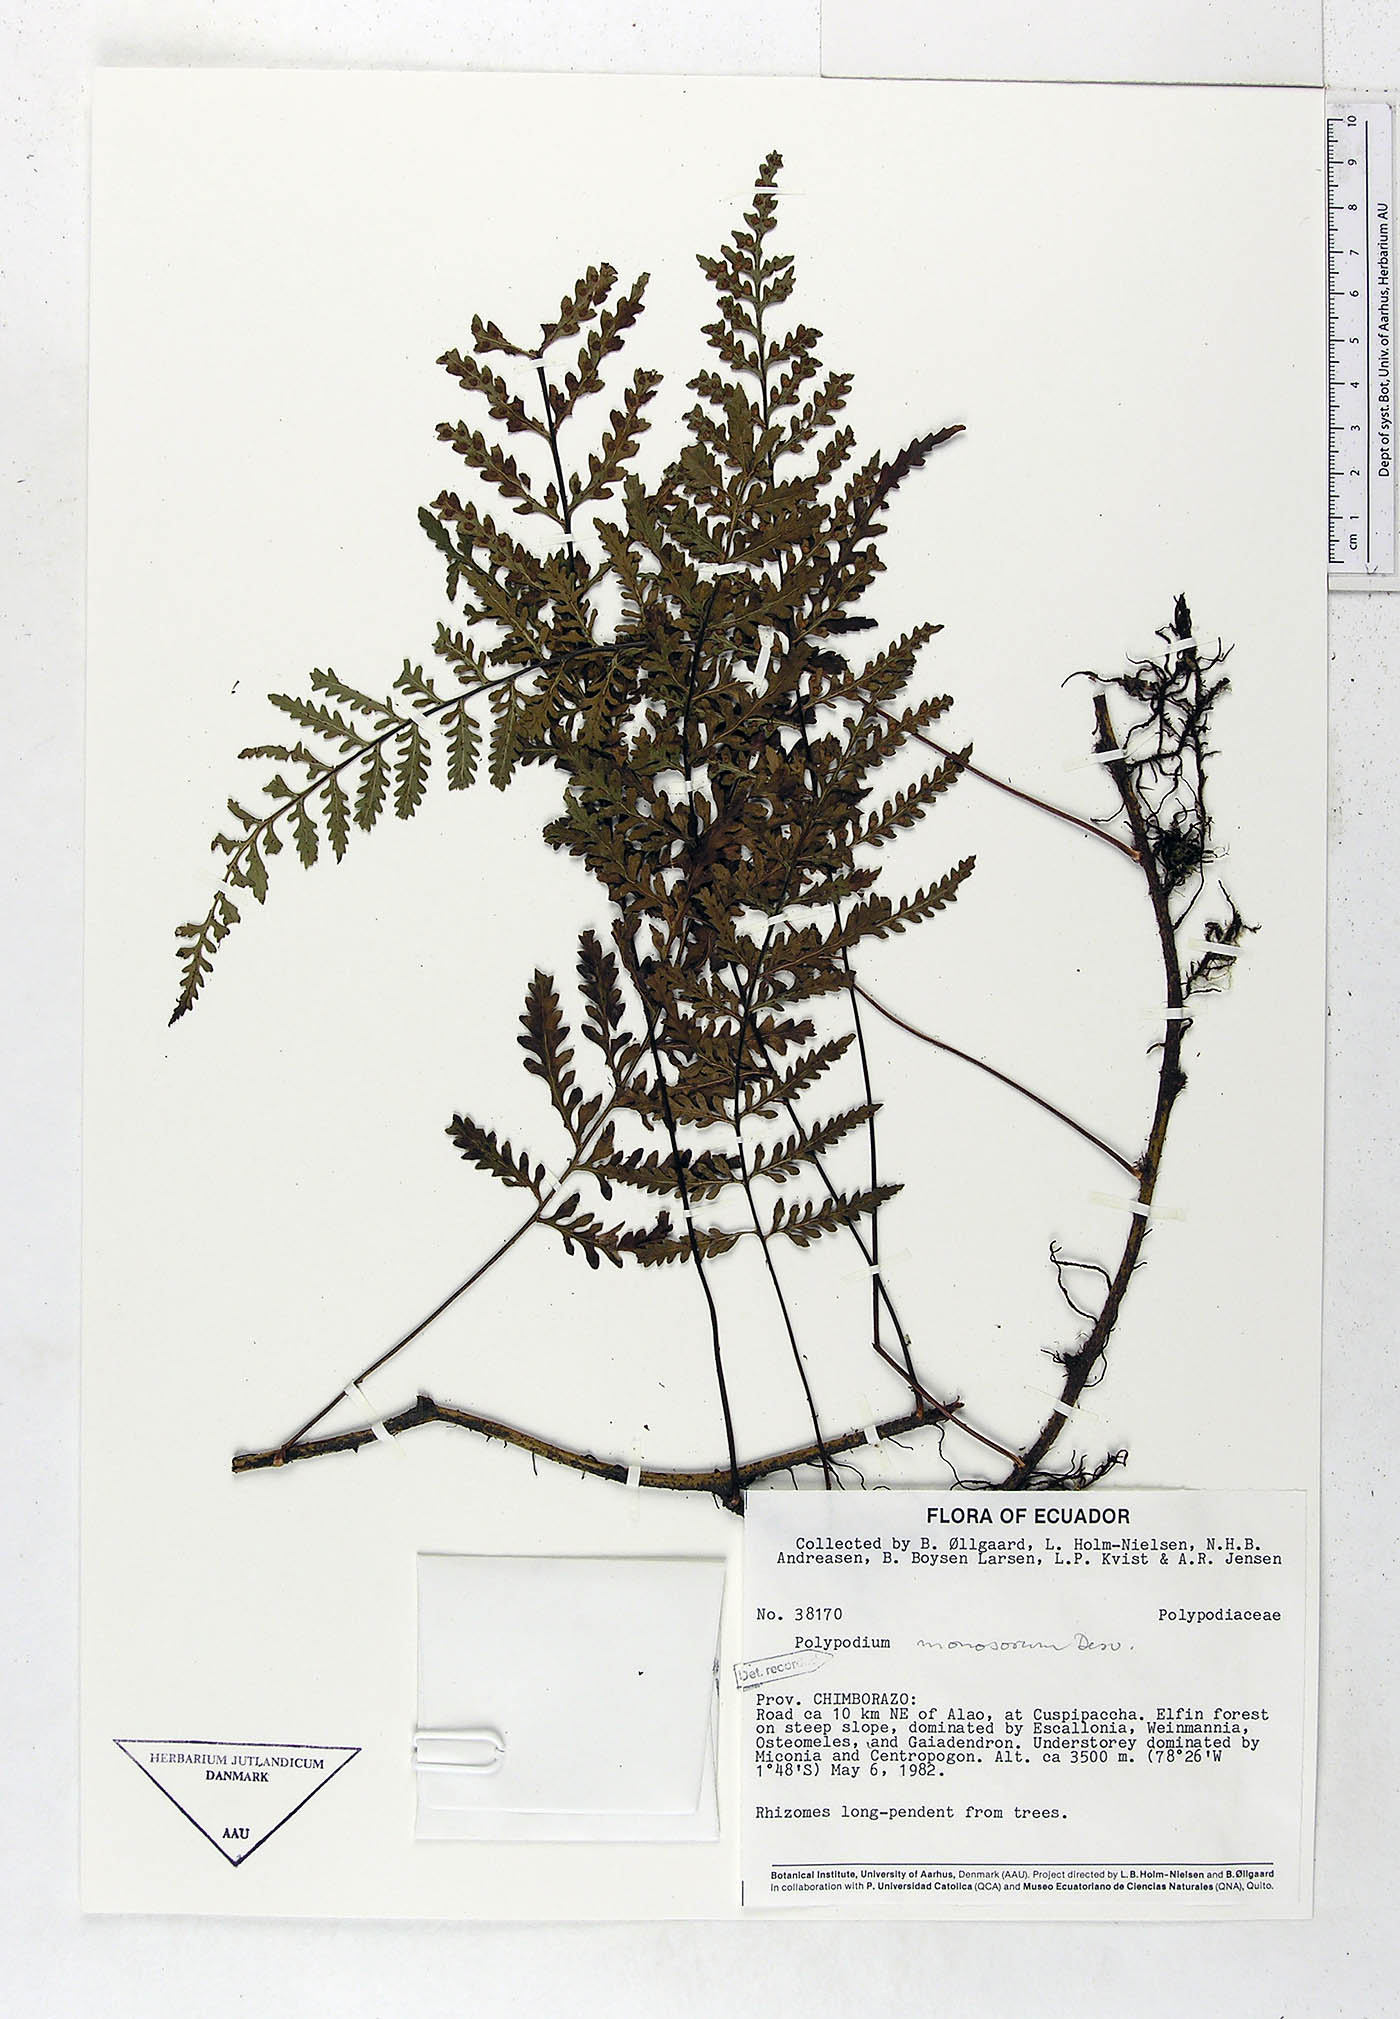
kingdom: Plantae
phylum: Tracheophyta
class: Polypodiopsida
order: Polypodiales
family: Polypodiaceae
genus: Pleopeltis
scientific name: Pleopeltis monosora
